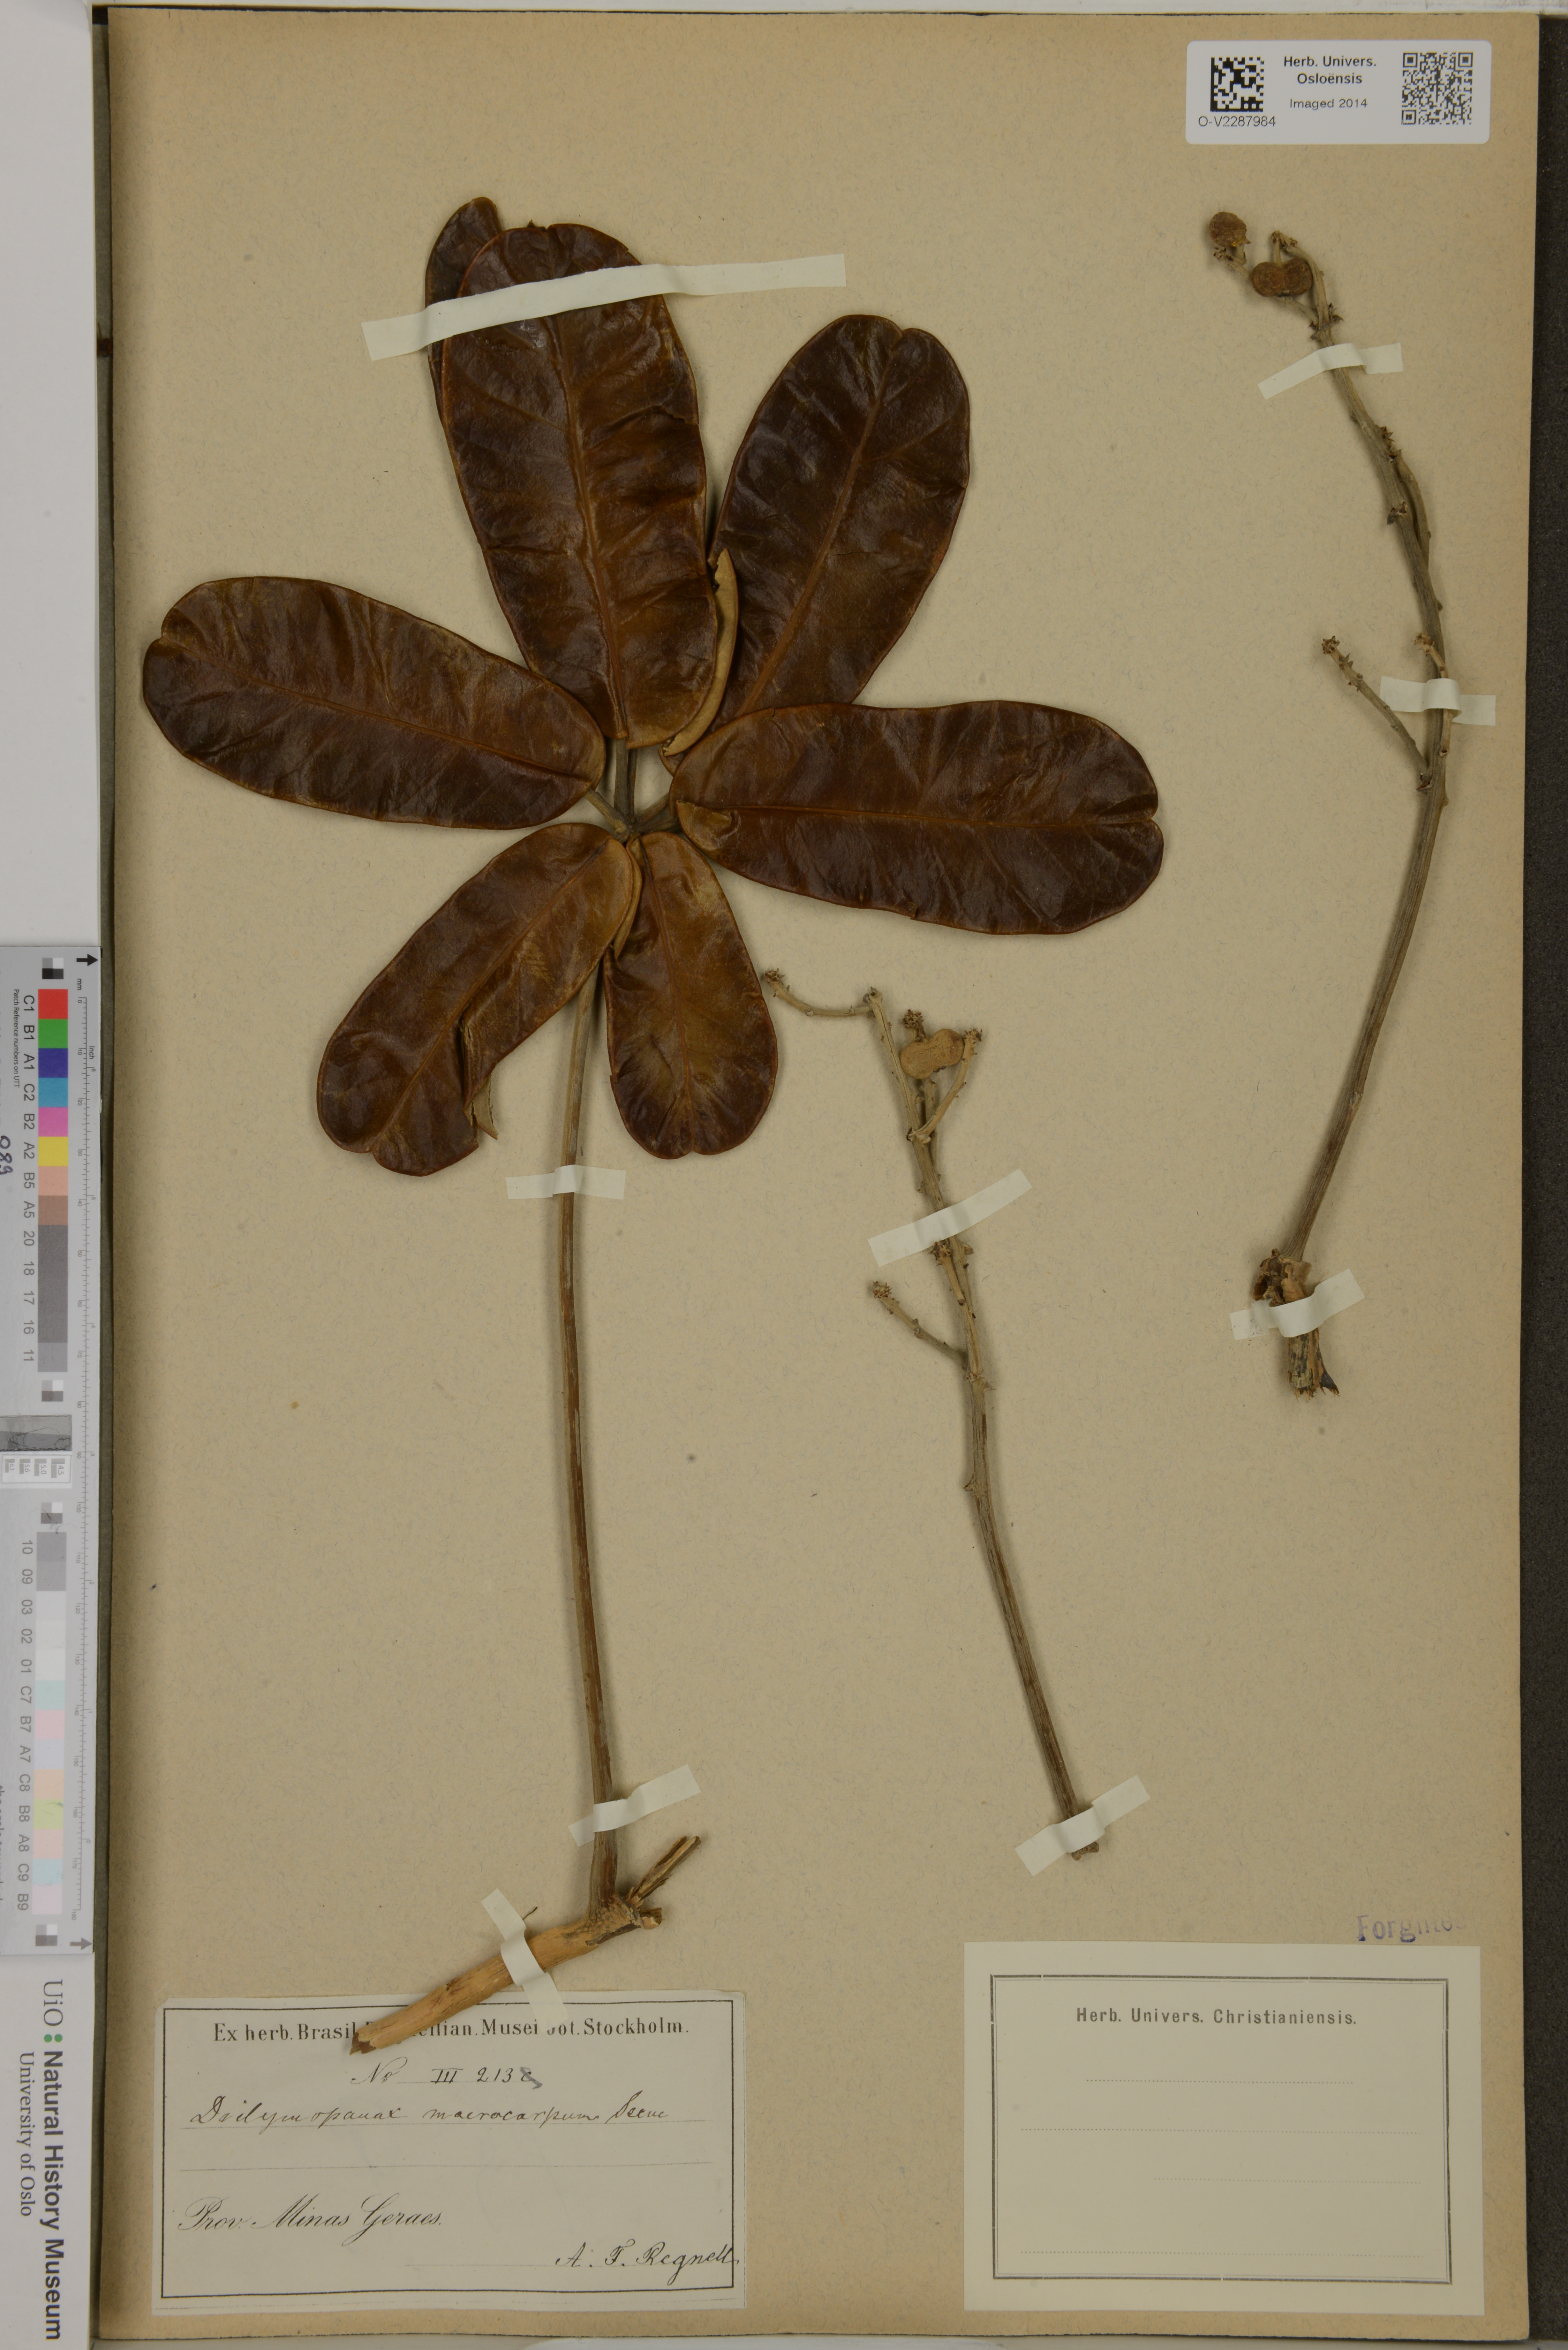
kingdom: Plantae
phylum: Tracheophyta
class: Magnoliopsida
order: Apiales
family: Araliaceae
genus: Didymopanax
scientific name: Didymopanax macrocarpus
